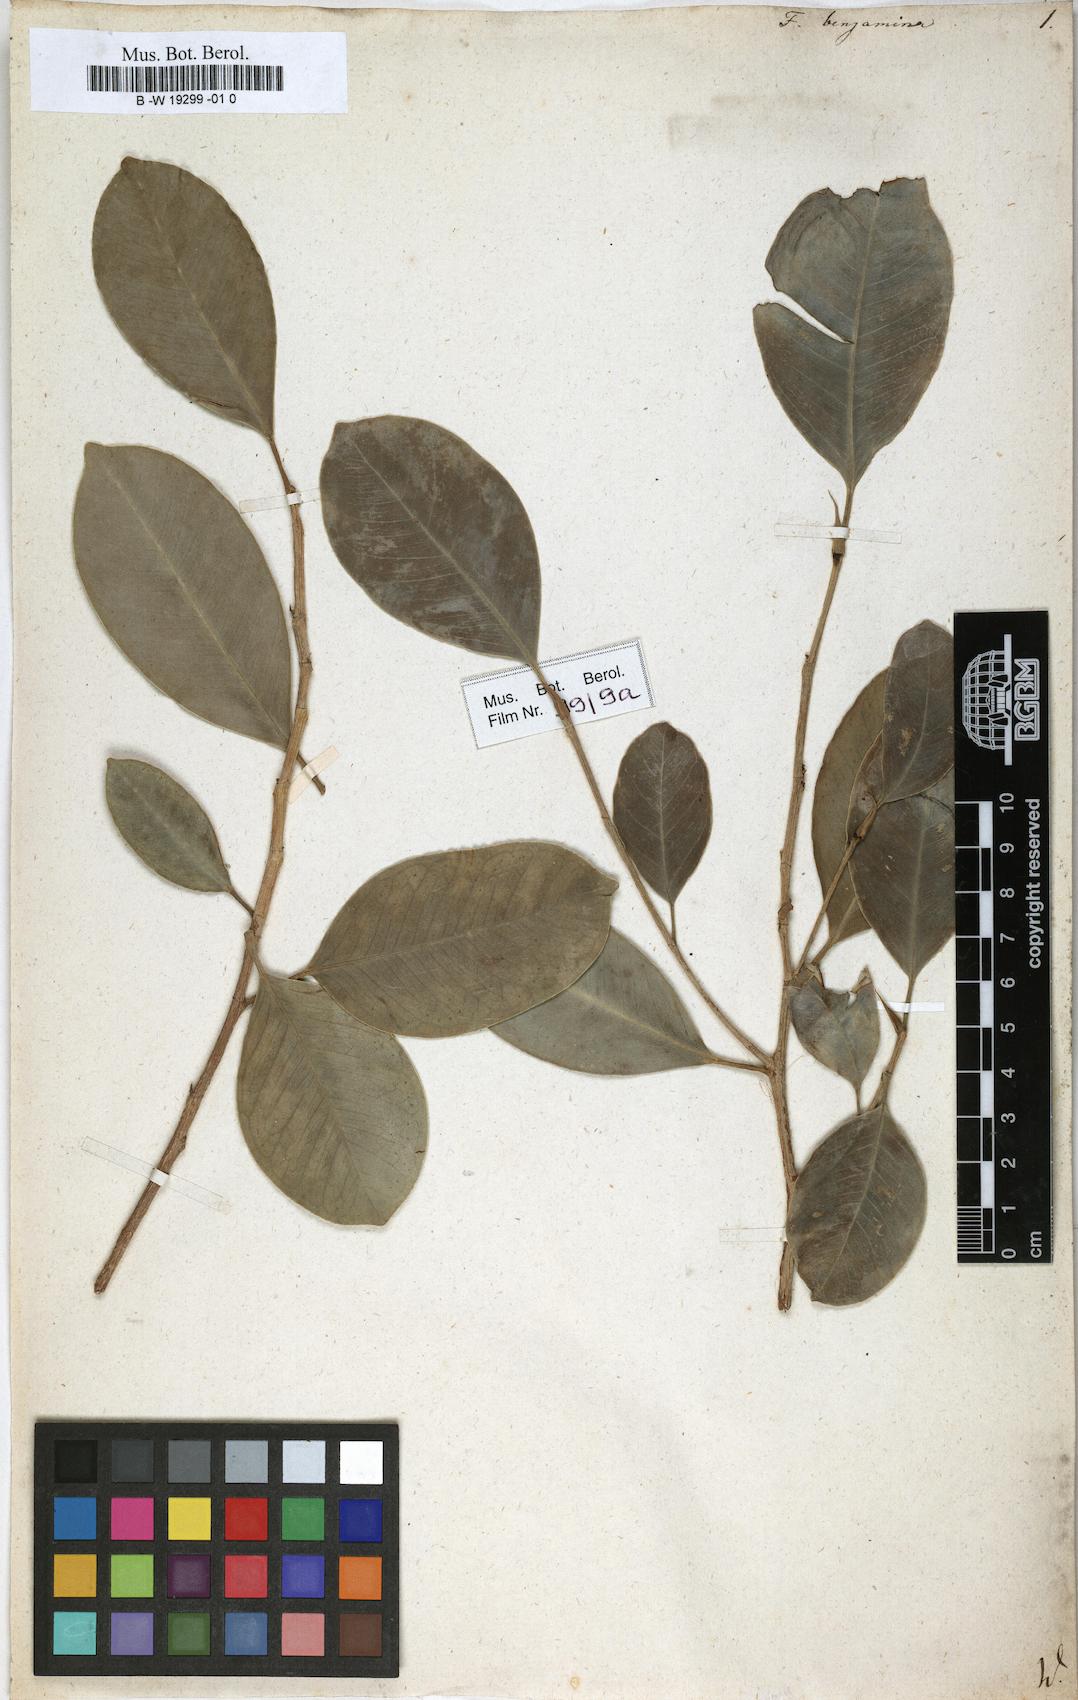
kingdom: Plantae
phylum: Tracheophyta
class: Magnoliopsida
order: Rosales
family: Moraceae
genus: Ficus
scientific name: Ficus benjamina
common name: Weeping fig
